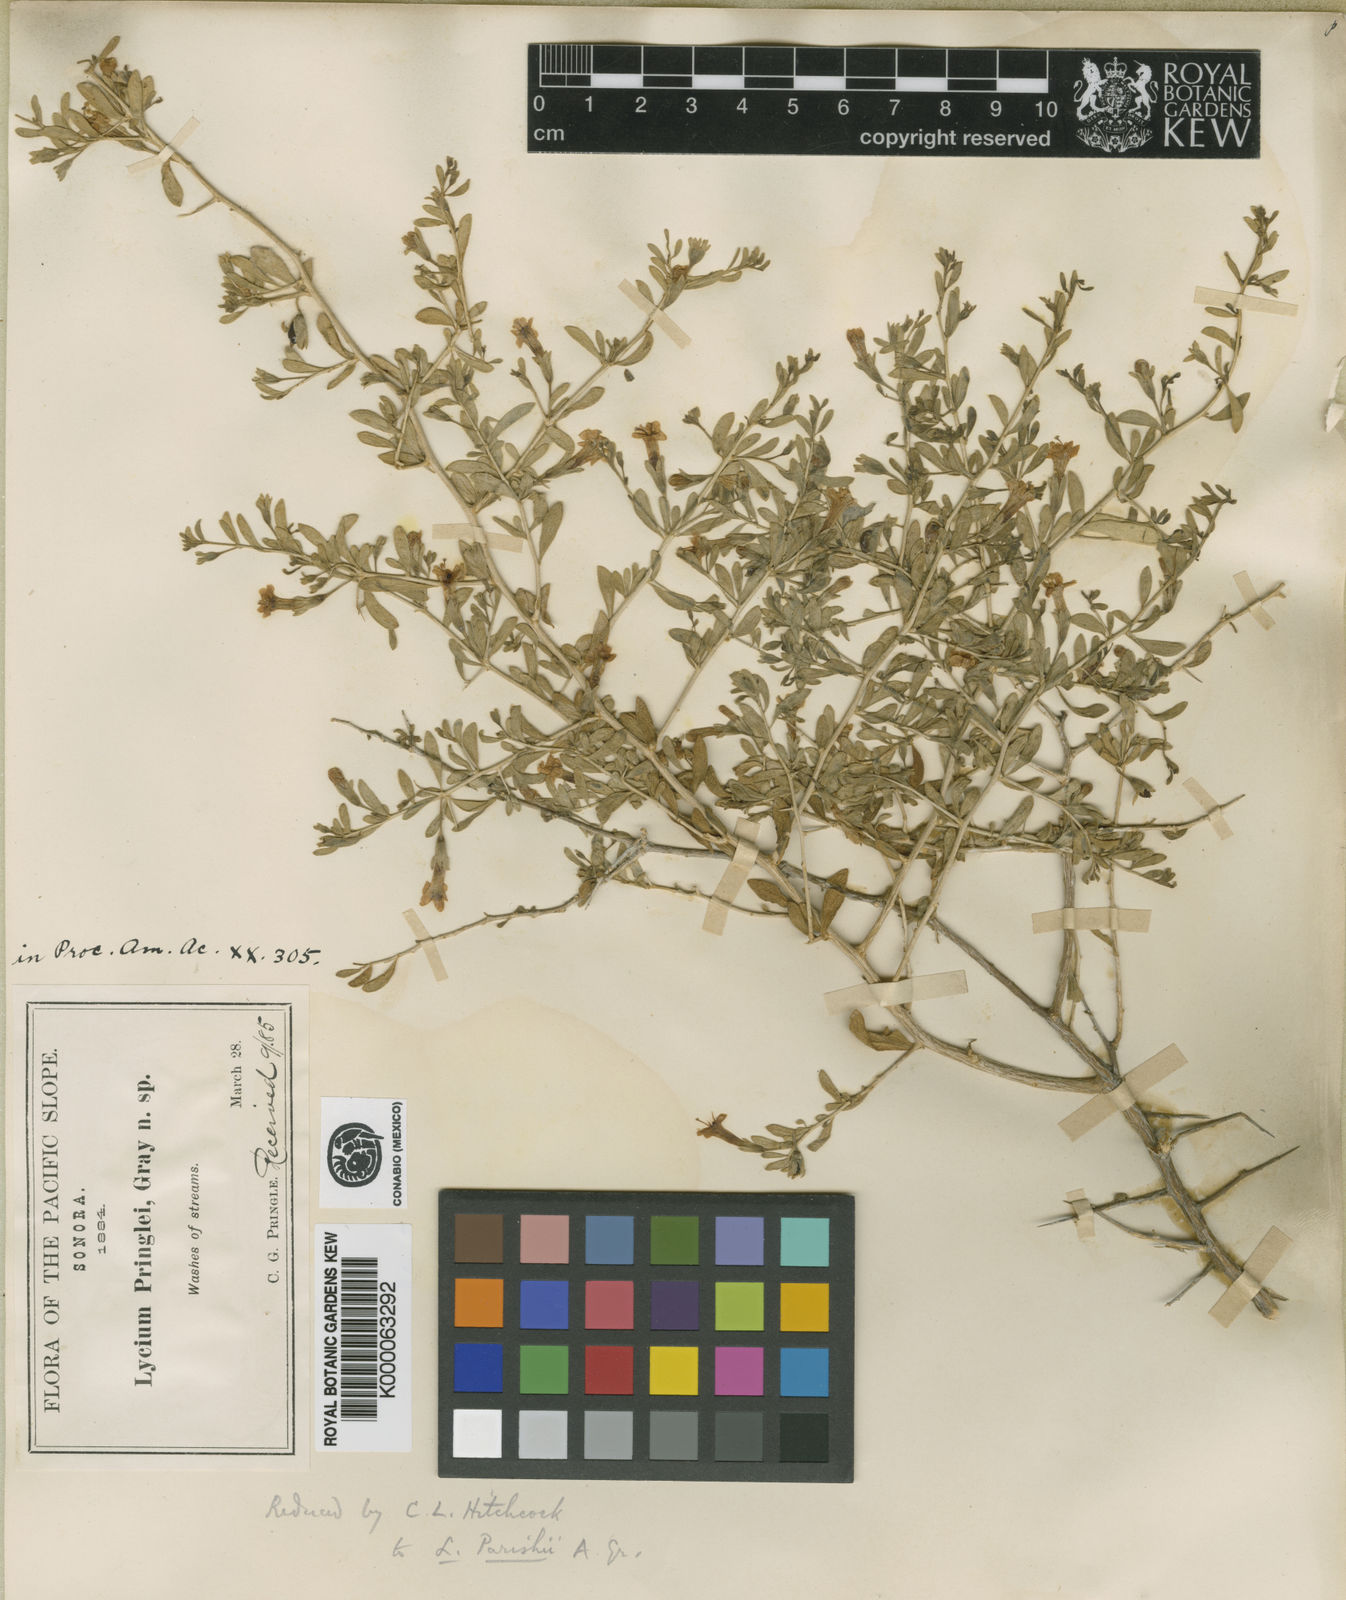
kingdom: Plantae
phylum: Tracheophyta
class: Magnoliopsida
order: Solanales
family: Solanaceae
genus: Lycium
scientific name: Lycium parishii
